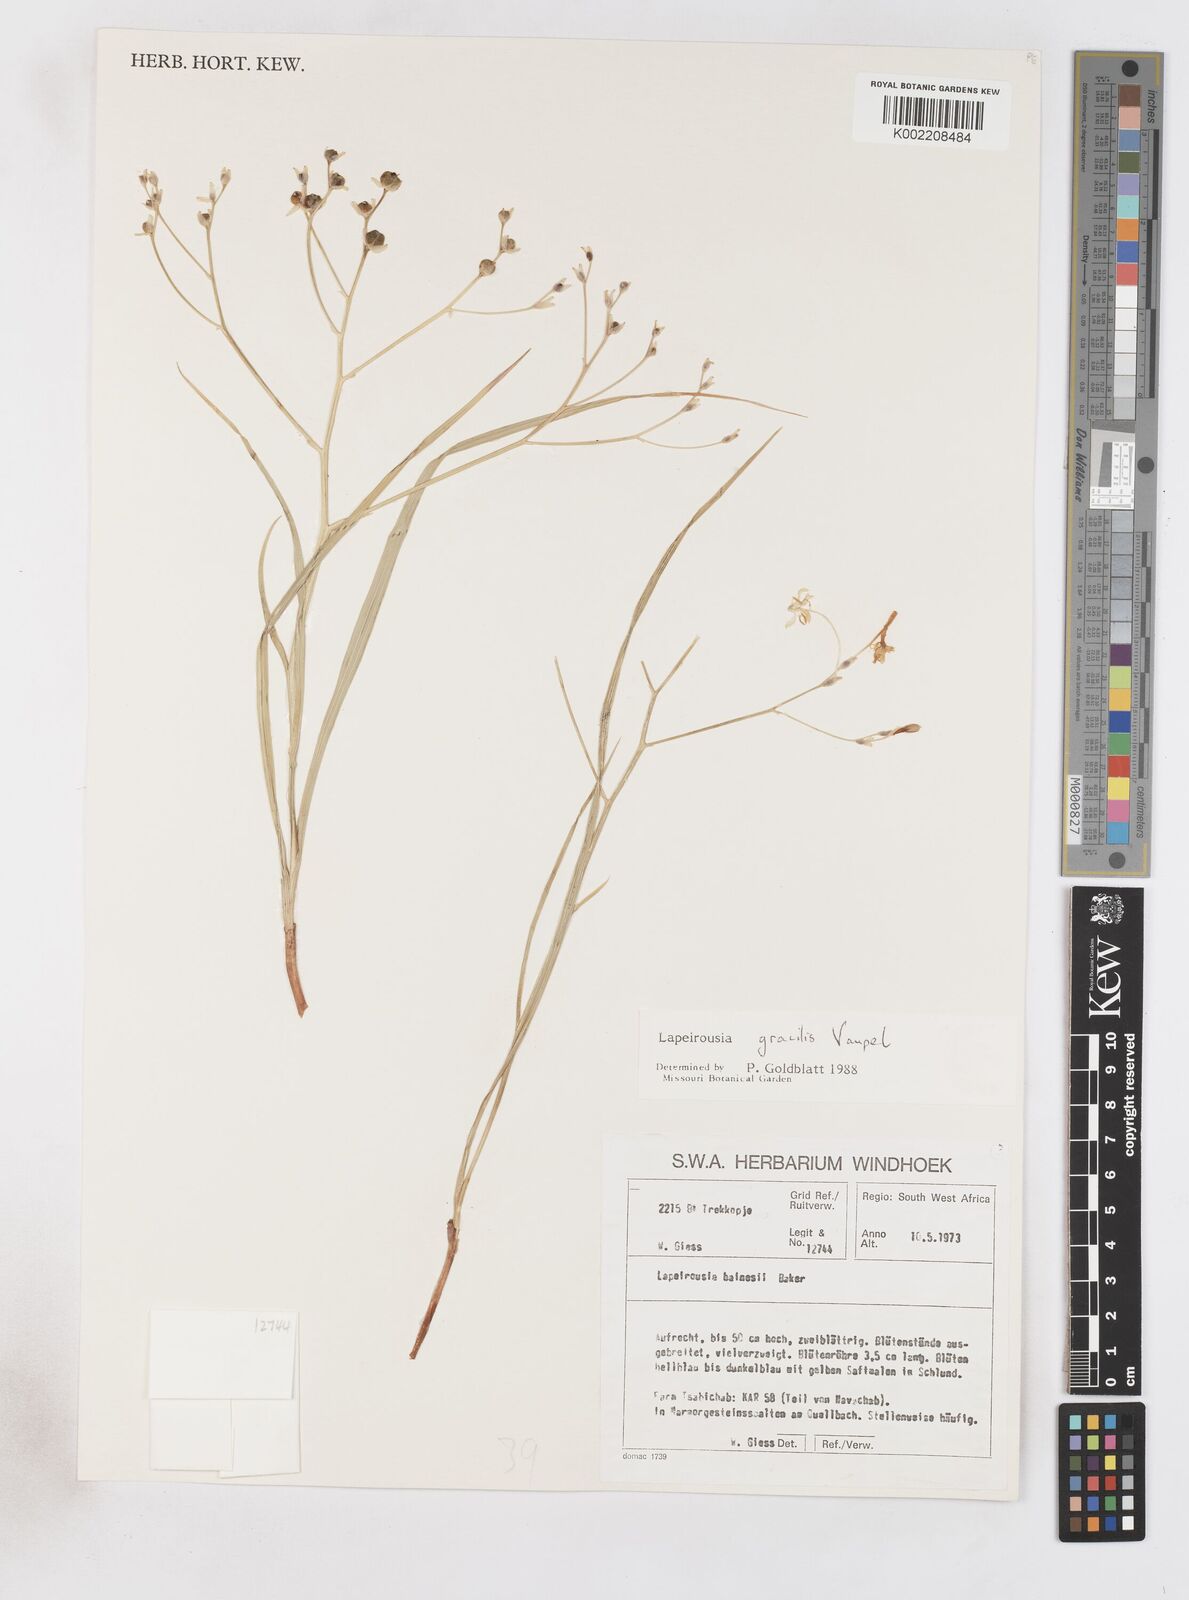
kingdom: Plantae
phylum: Tracheophyta
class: Liliopsida
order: Asparagales
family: Iridaceae
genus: Afrosolen
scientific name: Afrosolen gracilis
